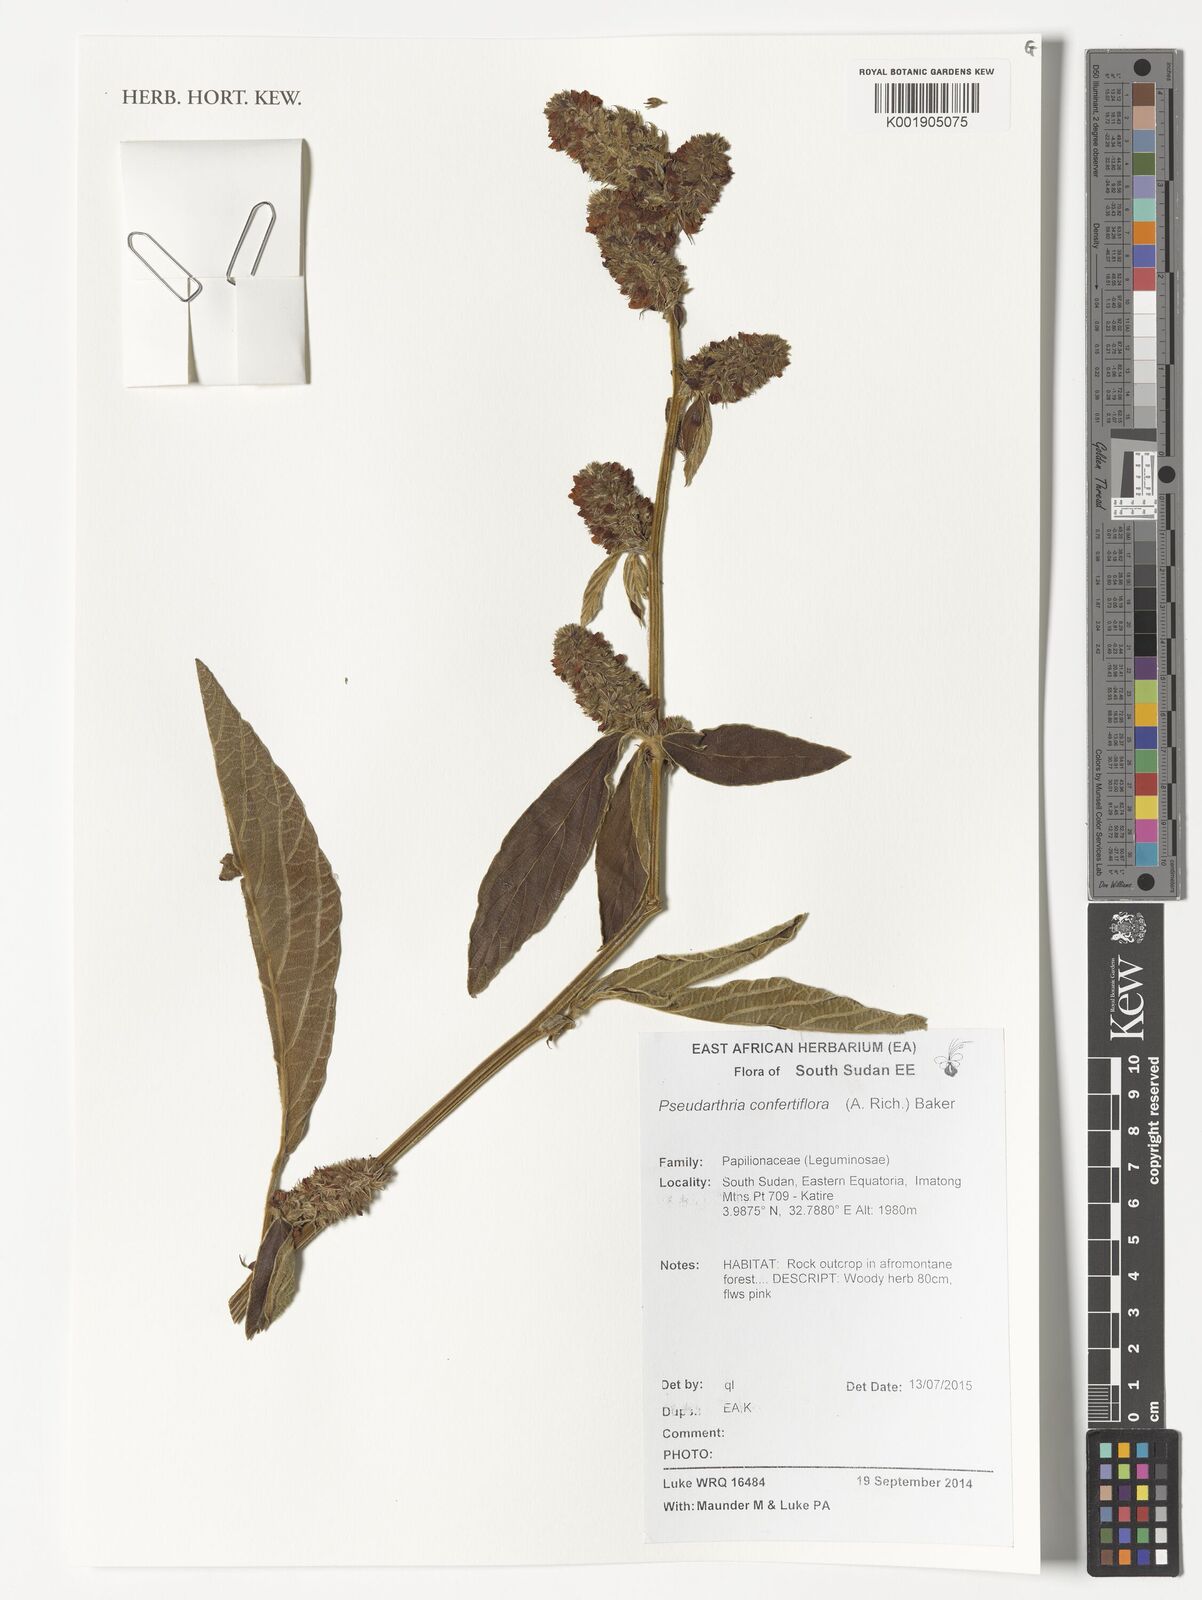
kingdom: Plantae
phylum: Tracheophyta
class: Magnoliopsida
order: Fabales
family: Fabaceae
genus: Pseudarthria
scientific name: Pseudarthria confertiflora
